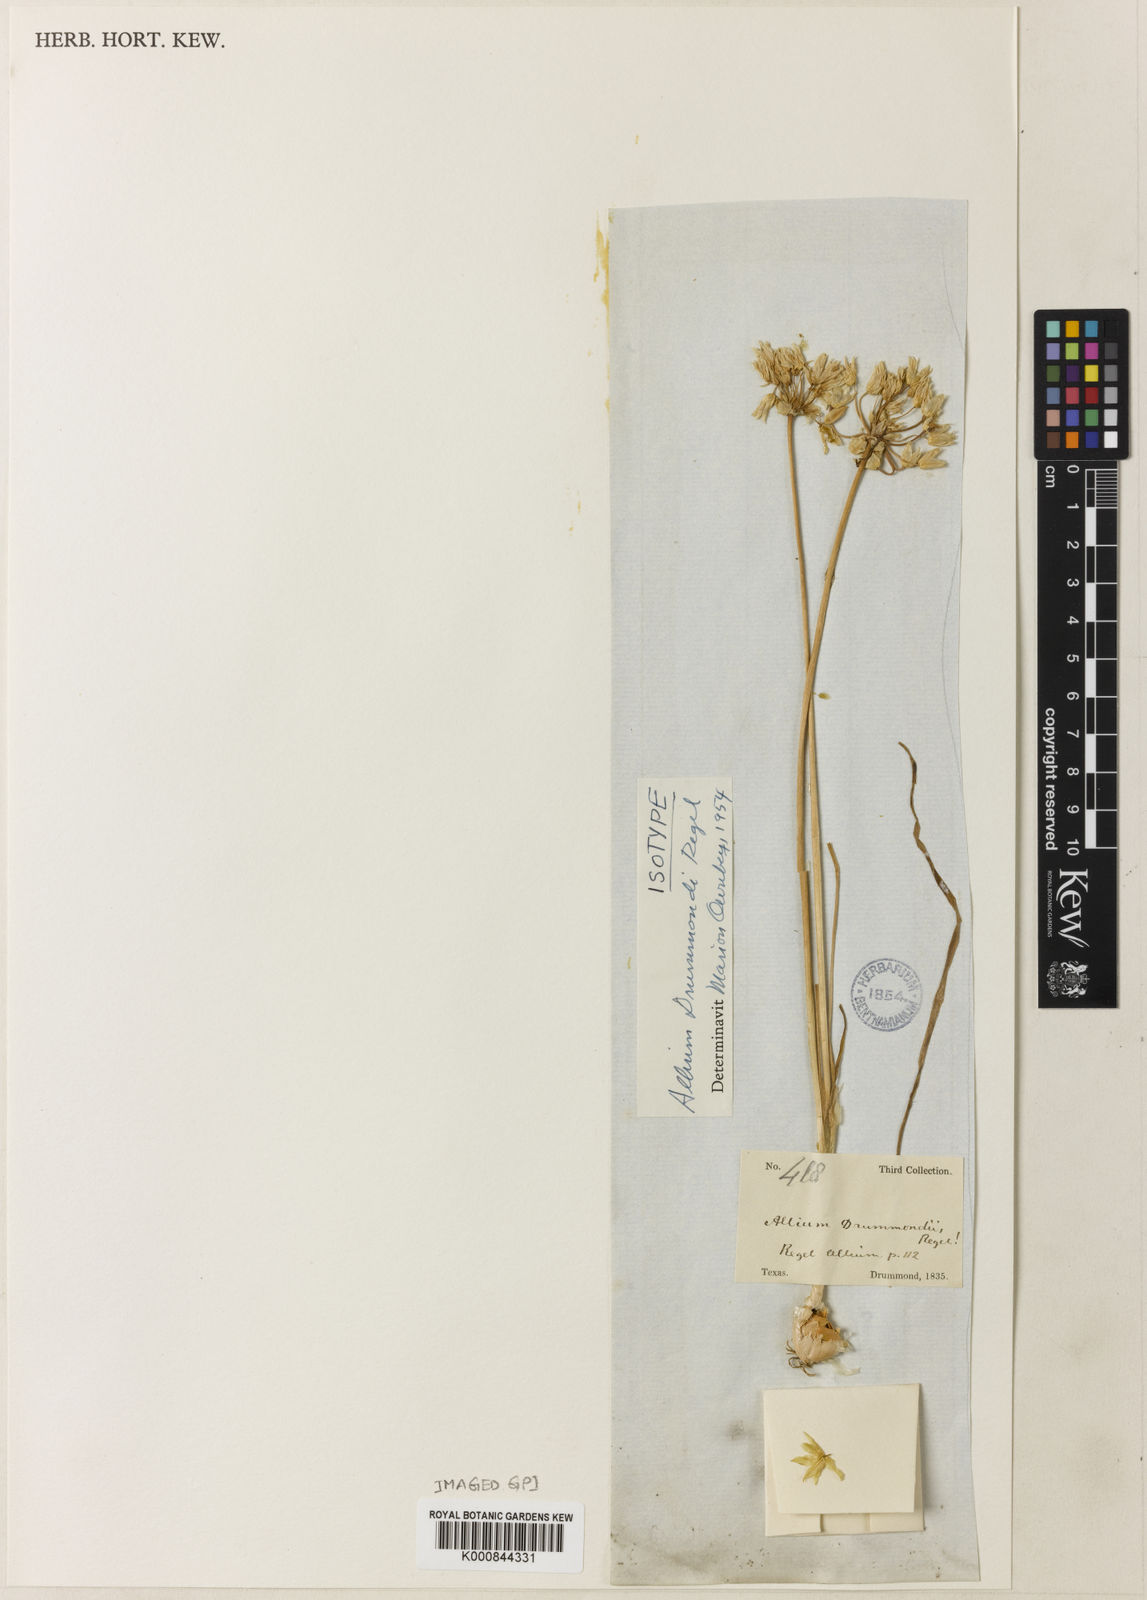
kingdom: Plantae
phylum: Tracheophyta
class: Liliopsida
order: Asparagales
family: Amaryllidaceae
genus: Allium
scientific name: Allium drummondii
